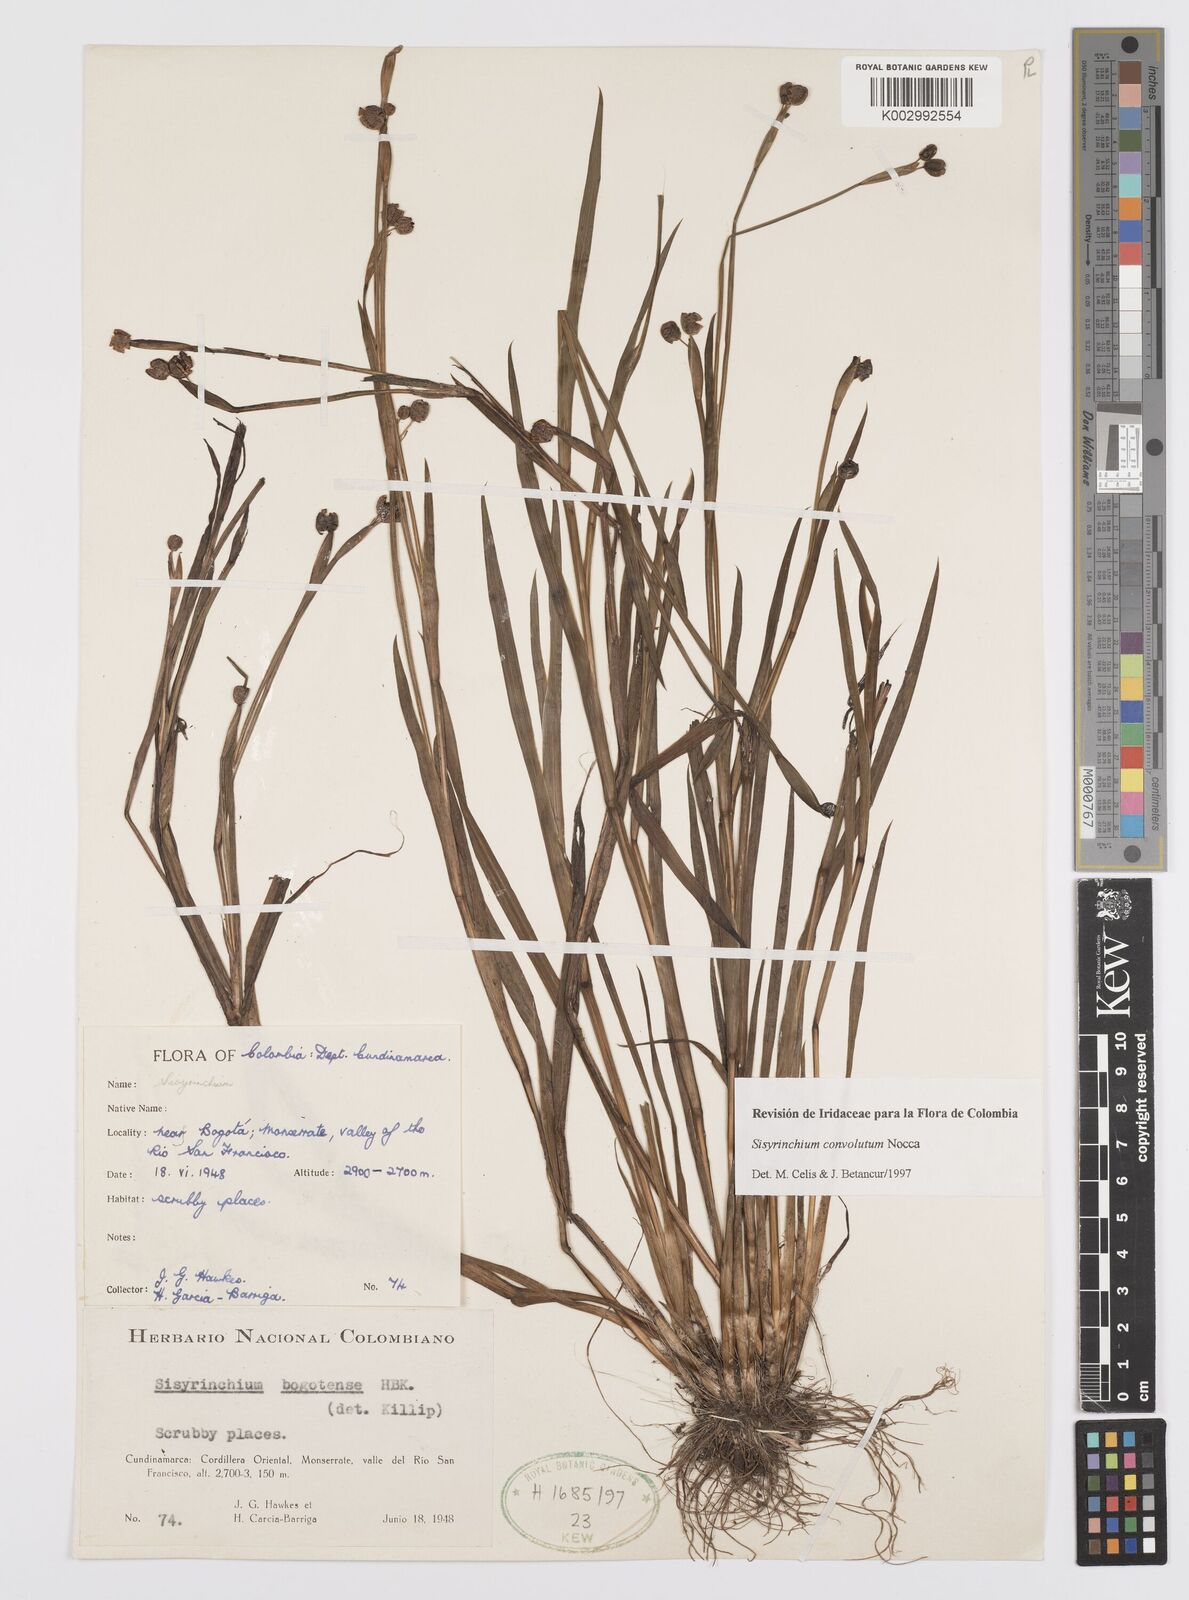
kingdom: Plantae
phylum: Tracheophyta
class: Liliopsida
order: Asparagales
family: Iridaceae
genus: Sisyrinchium
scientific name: Sisyrinchium convolutum
